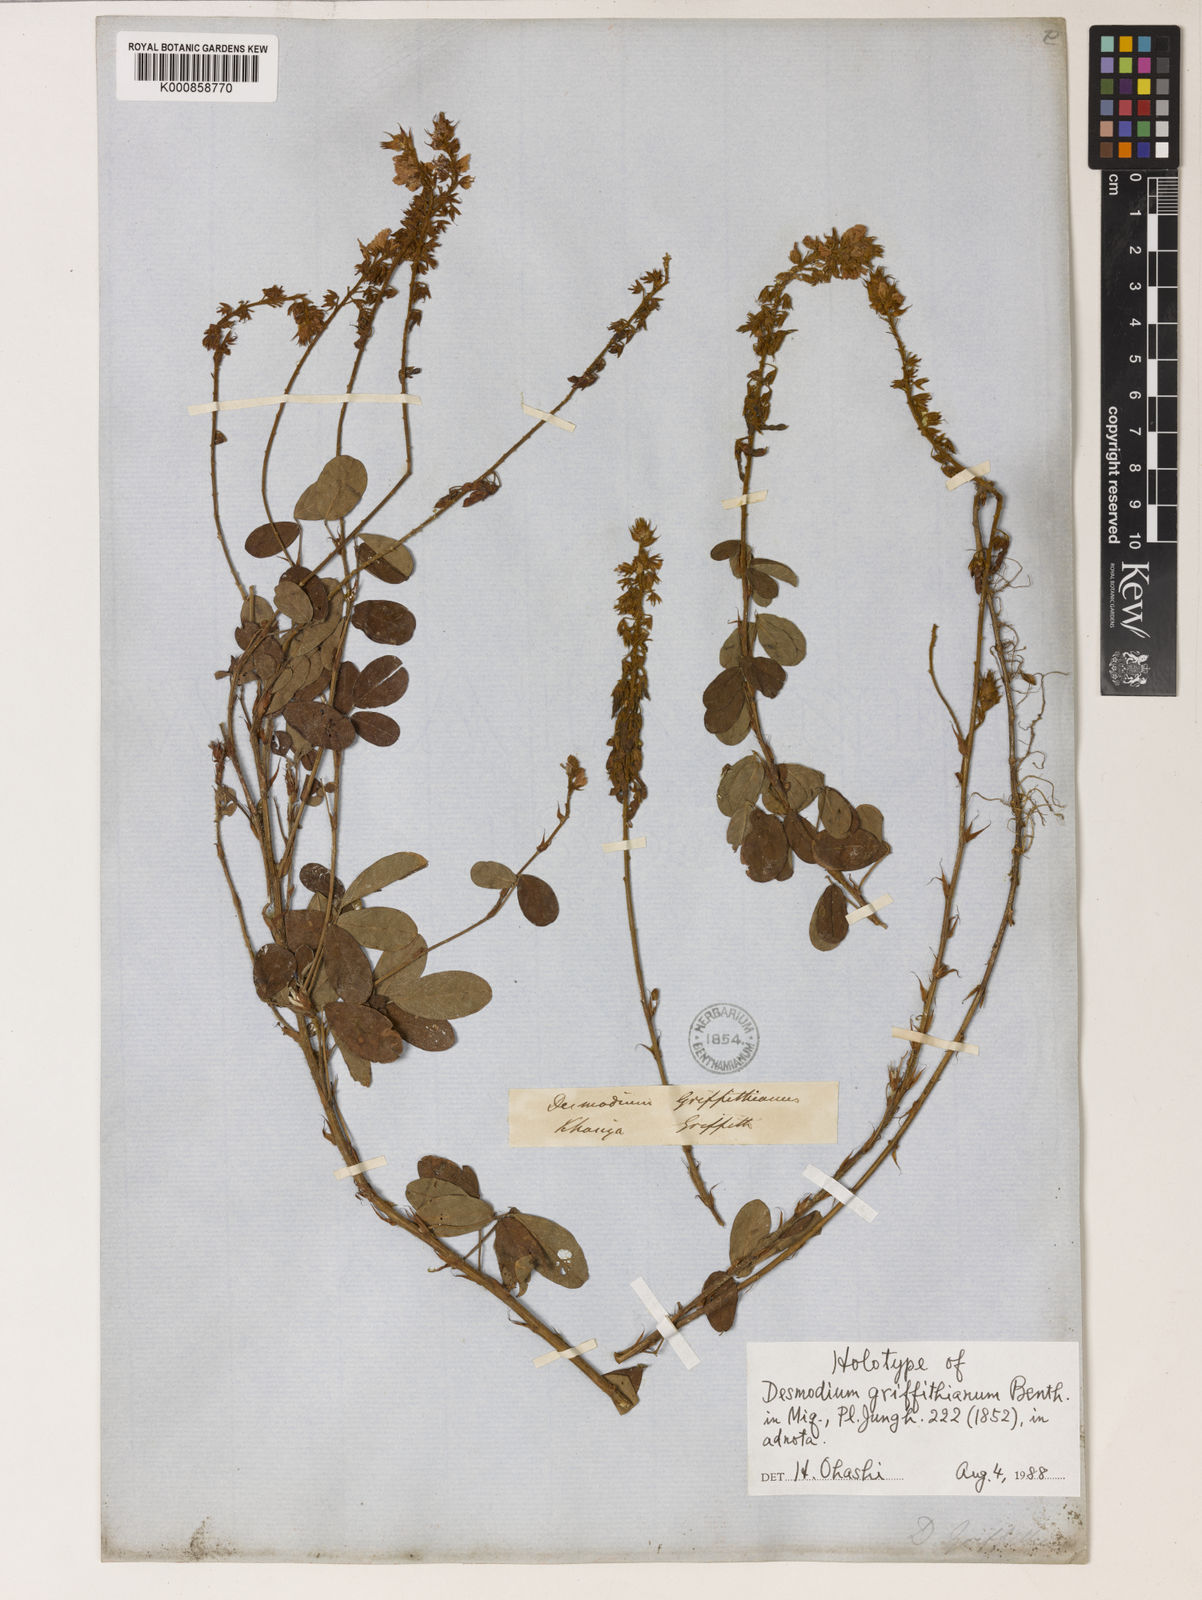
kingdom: Plantae
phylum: Tracheophyta
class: Magnoliopsida
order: Fabales
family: Fabaceae
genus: Grona
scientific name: Grona griffithiana
